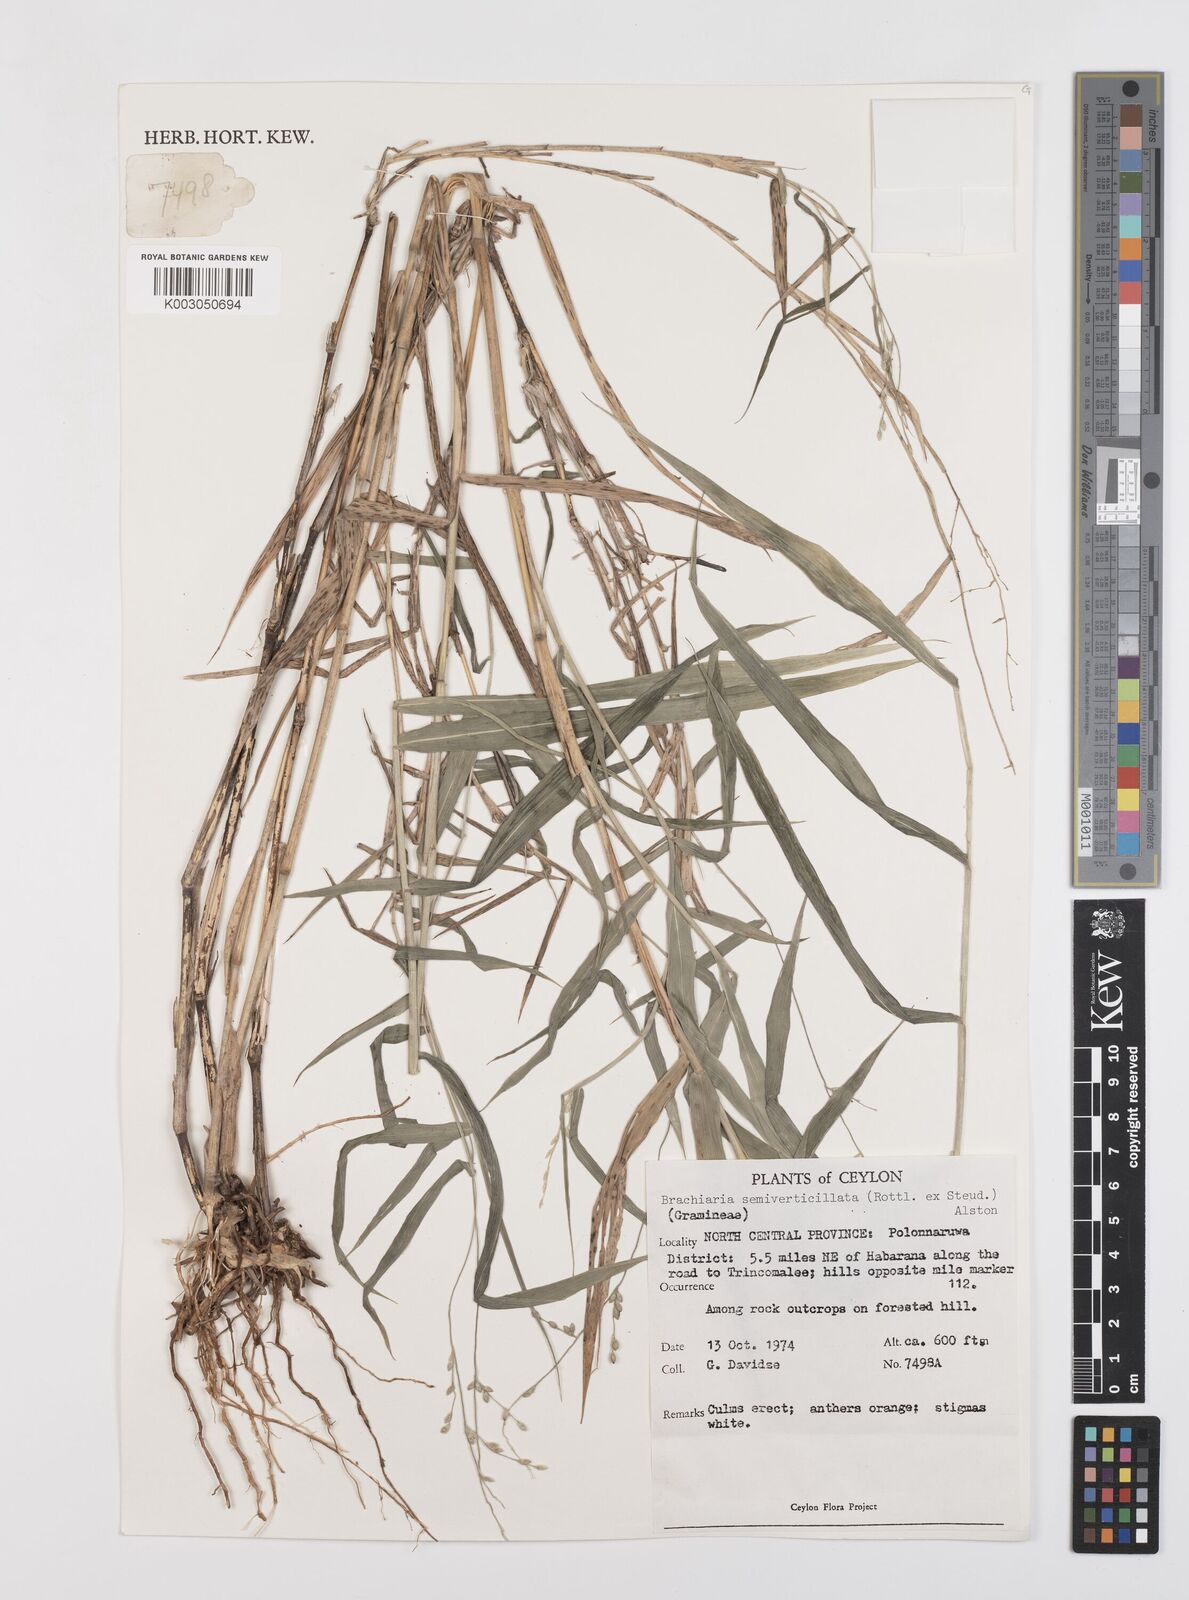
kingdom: Plantae
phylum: Tracheophyta
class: Liliopsida
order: Poales
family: Poaceae
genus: Urochloa
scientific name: Urochloa semiundulata
